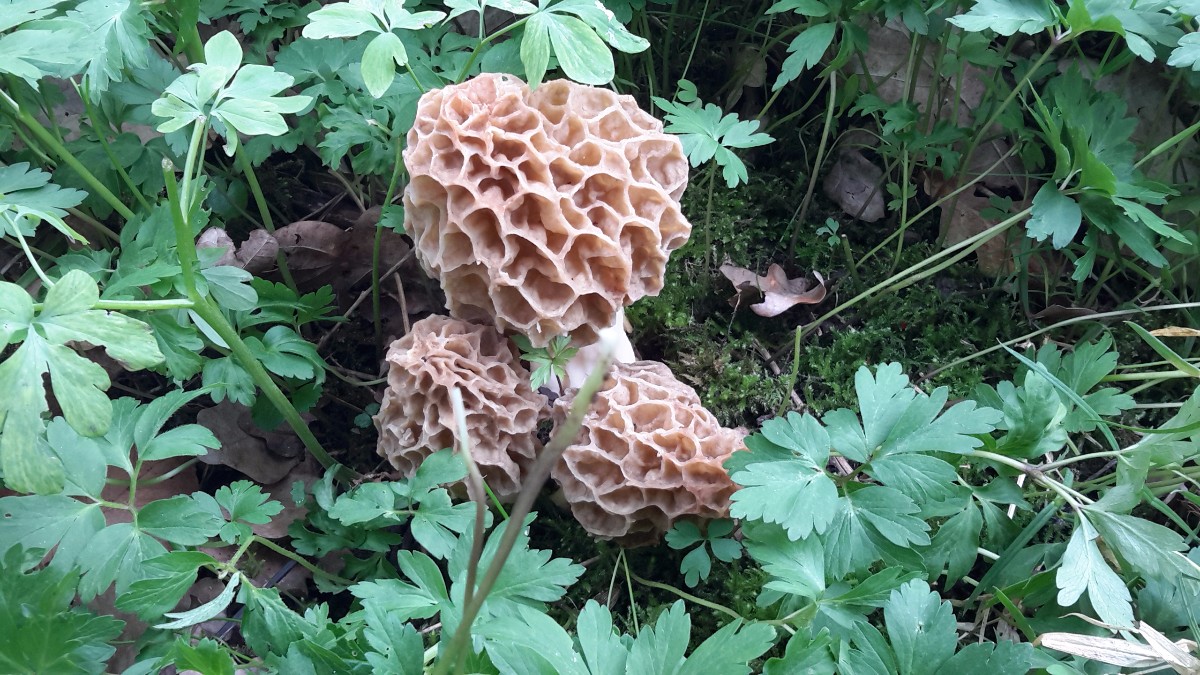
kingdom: Fungi
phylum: Ascomycota
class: Pezizomycetes
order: Pezizales
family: Morchellaceae
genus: Morchella
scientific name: Morchella esculenta
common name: spiselig morkel
